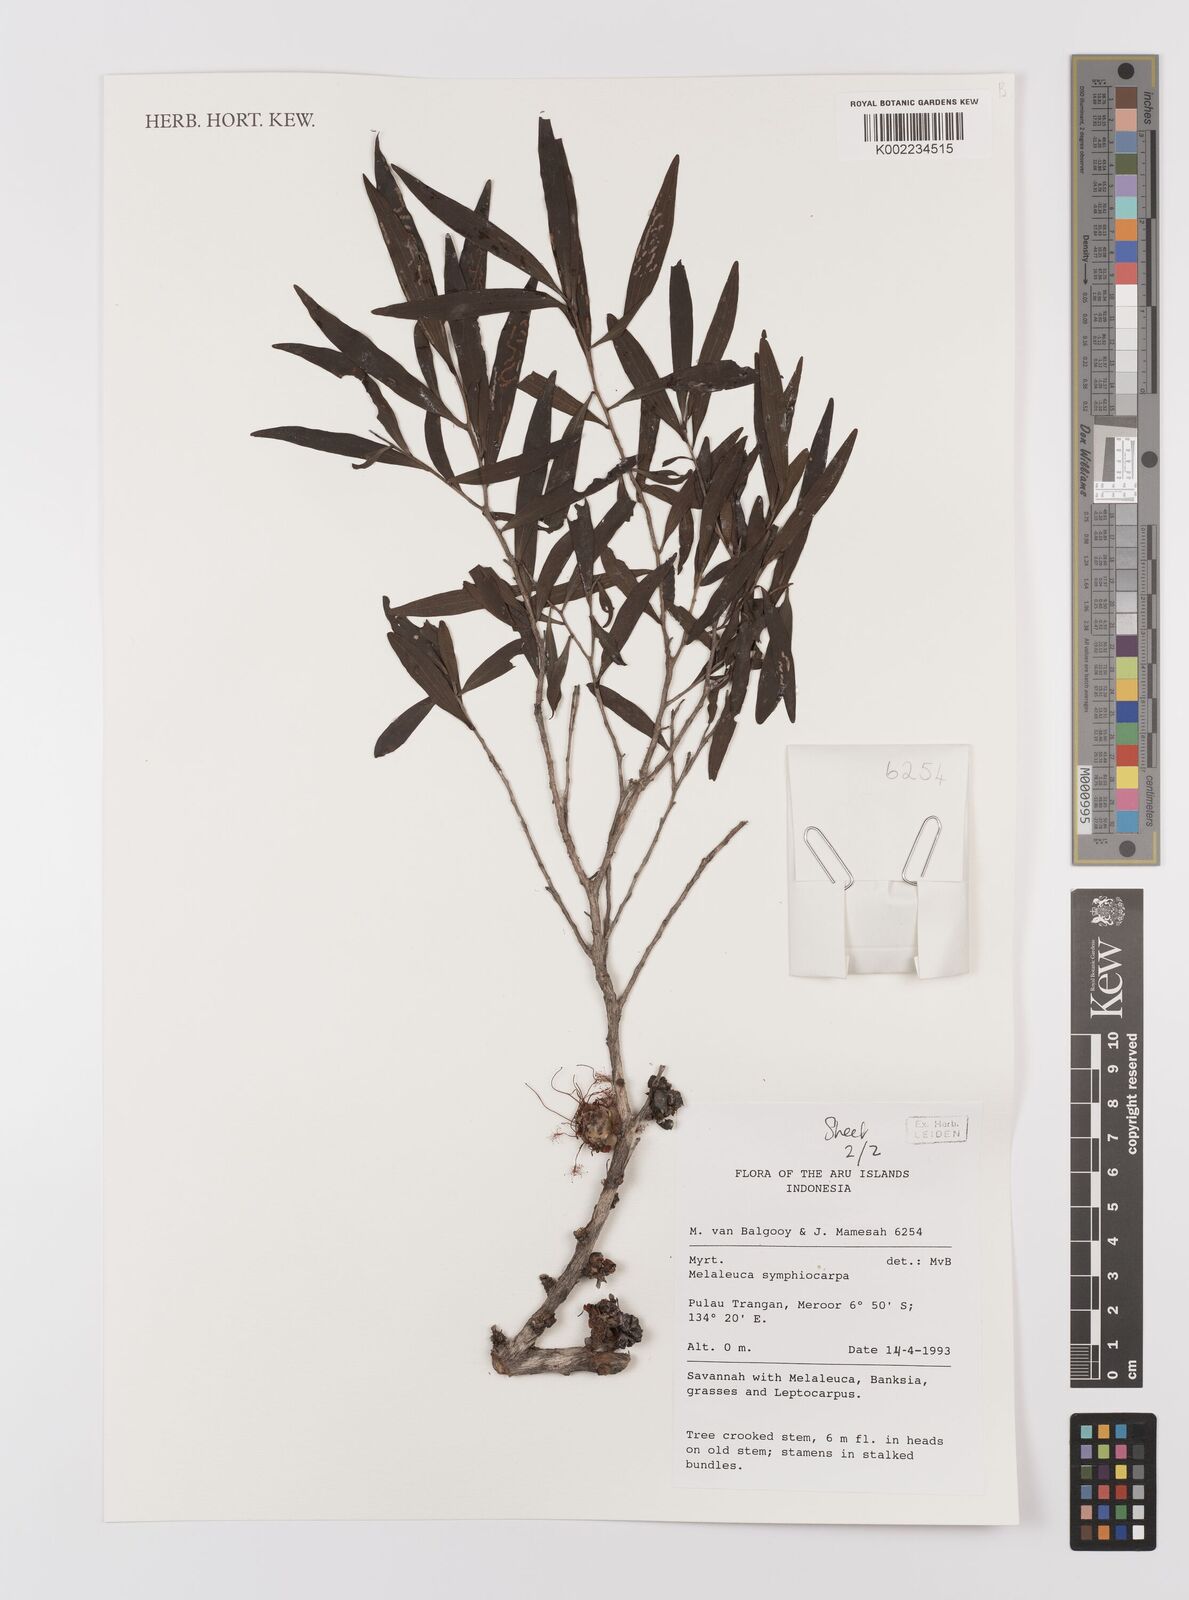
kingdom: Plantae
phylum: Tracheophyta
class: Magnoliopsida
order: Myrtales
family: Myrtaceae
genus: Asteromyrtus
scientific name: Asteromyrtus symphyocarpa
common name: Liniment-tree
